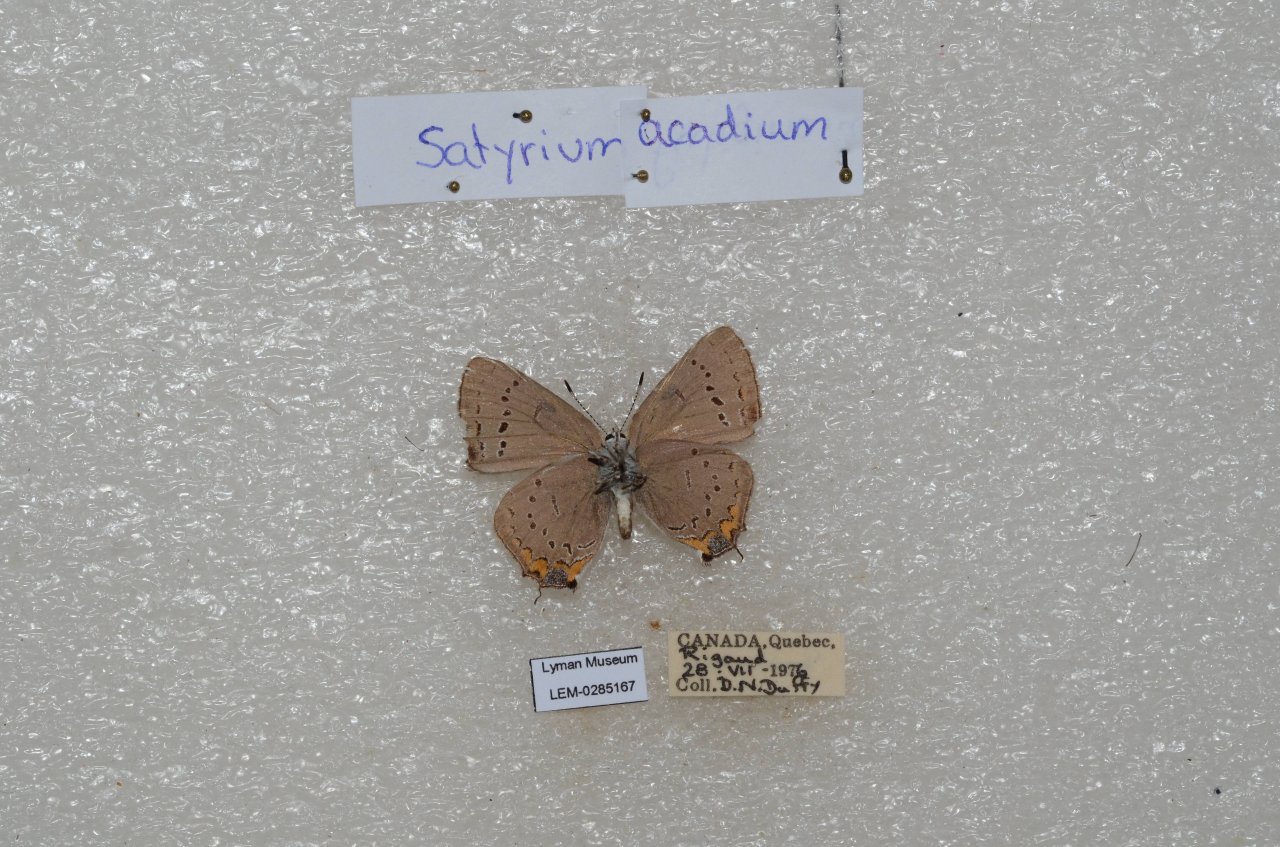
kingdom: Animalia
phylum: Arthropoda
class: Insecta
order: Lepidoptera
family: Lycaenidae
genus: Strymon
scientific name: Strymon acadica
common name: Acadian Hairstreak
